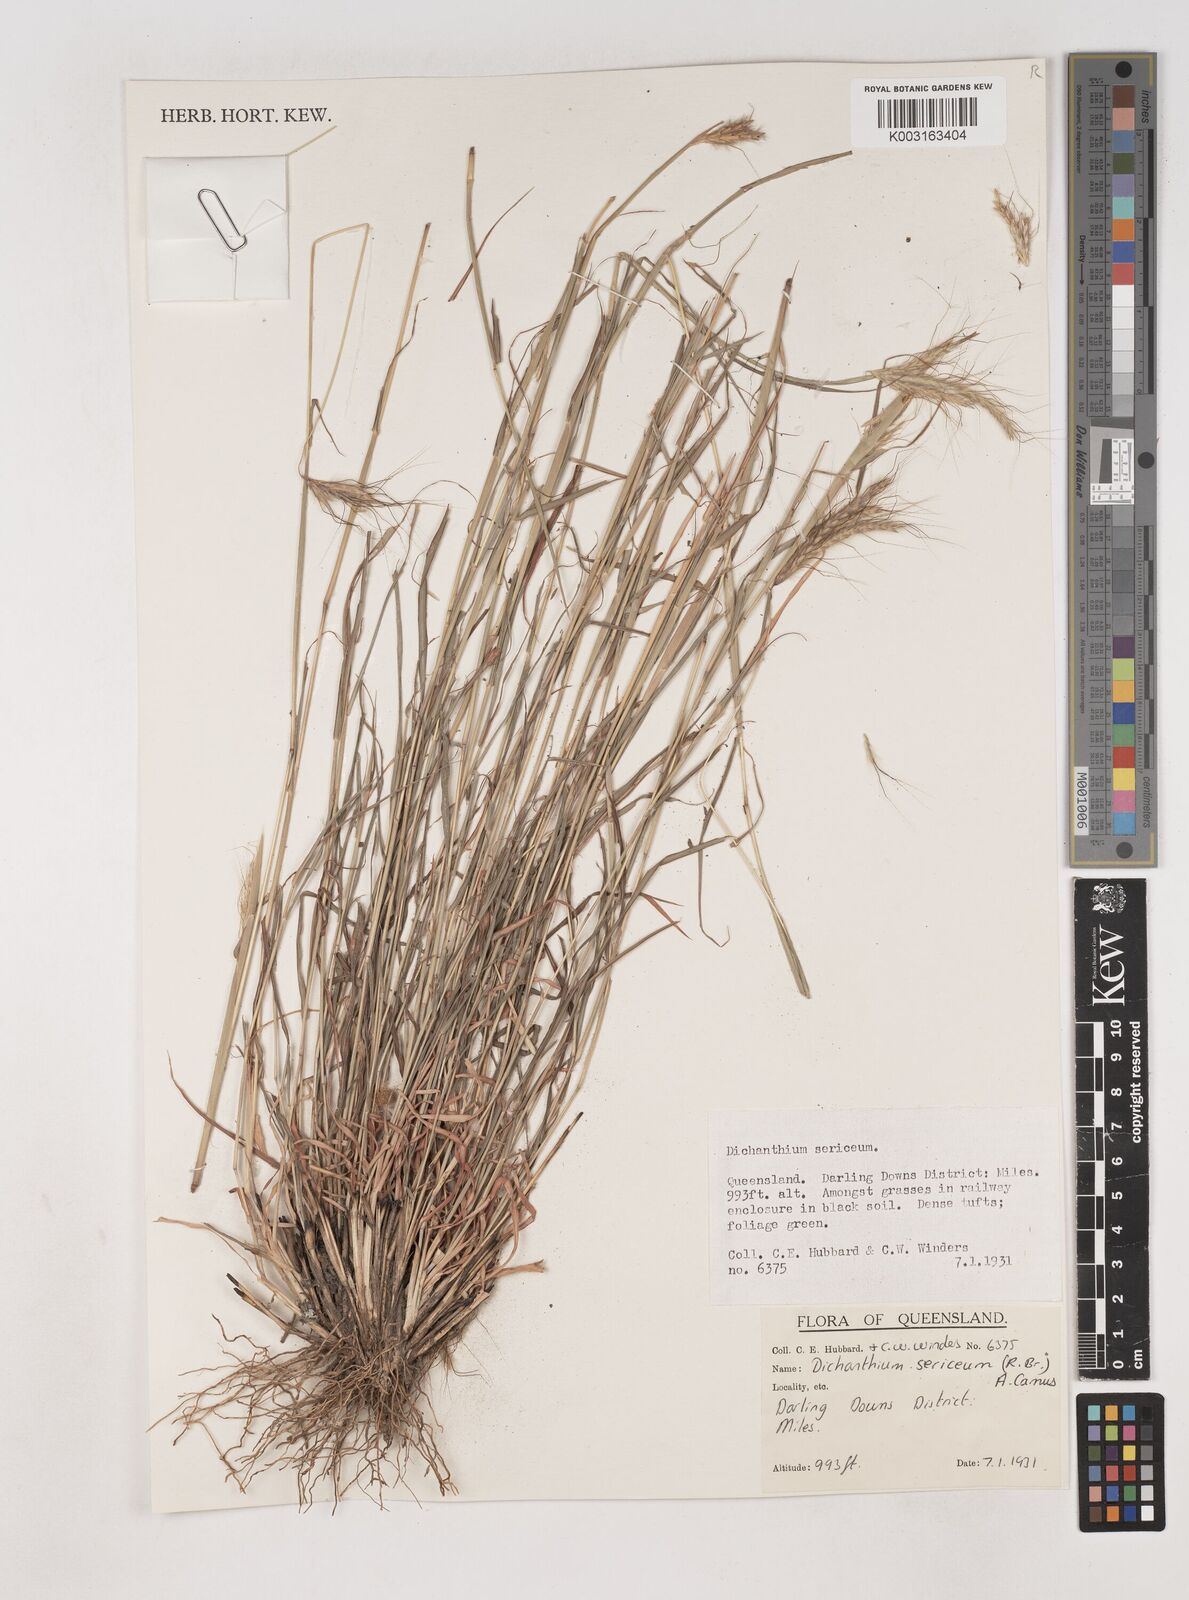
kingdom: Plantae
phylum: Tracheophyta
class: Liliopsida
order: Poales
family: Poaceae
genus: Dichanthium
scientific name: Dichanthium sericeum
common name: Silky bluestem
